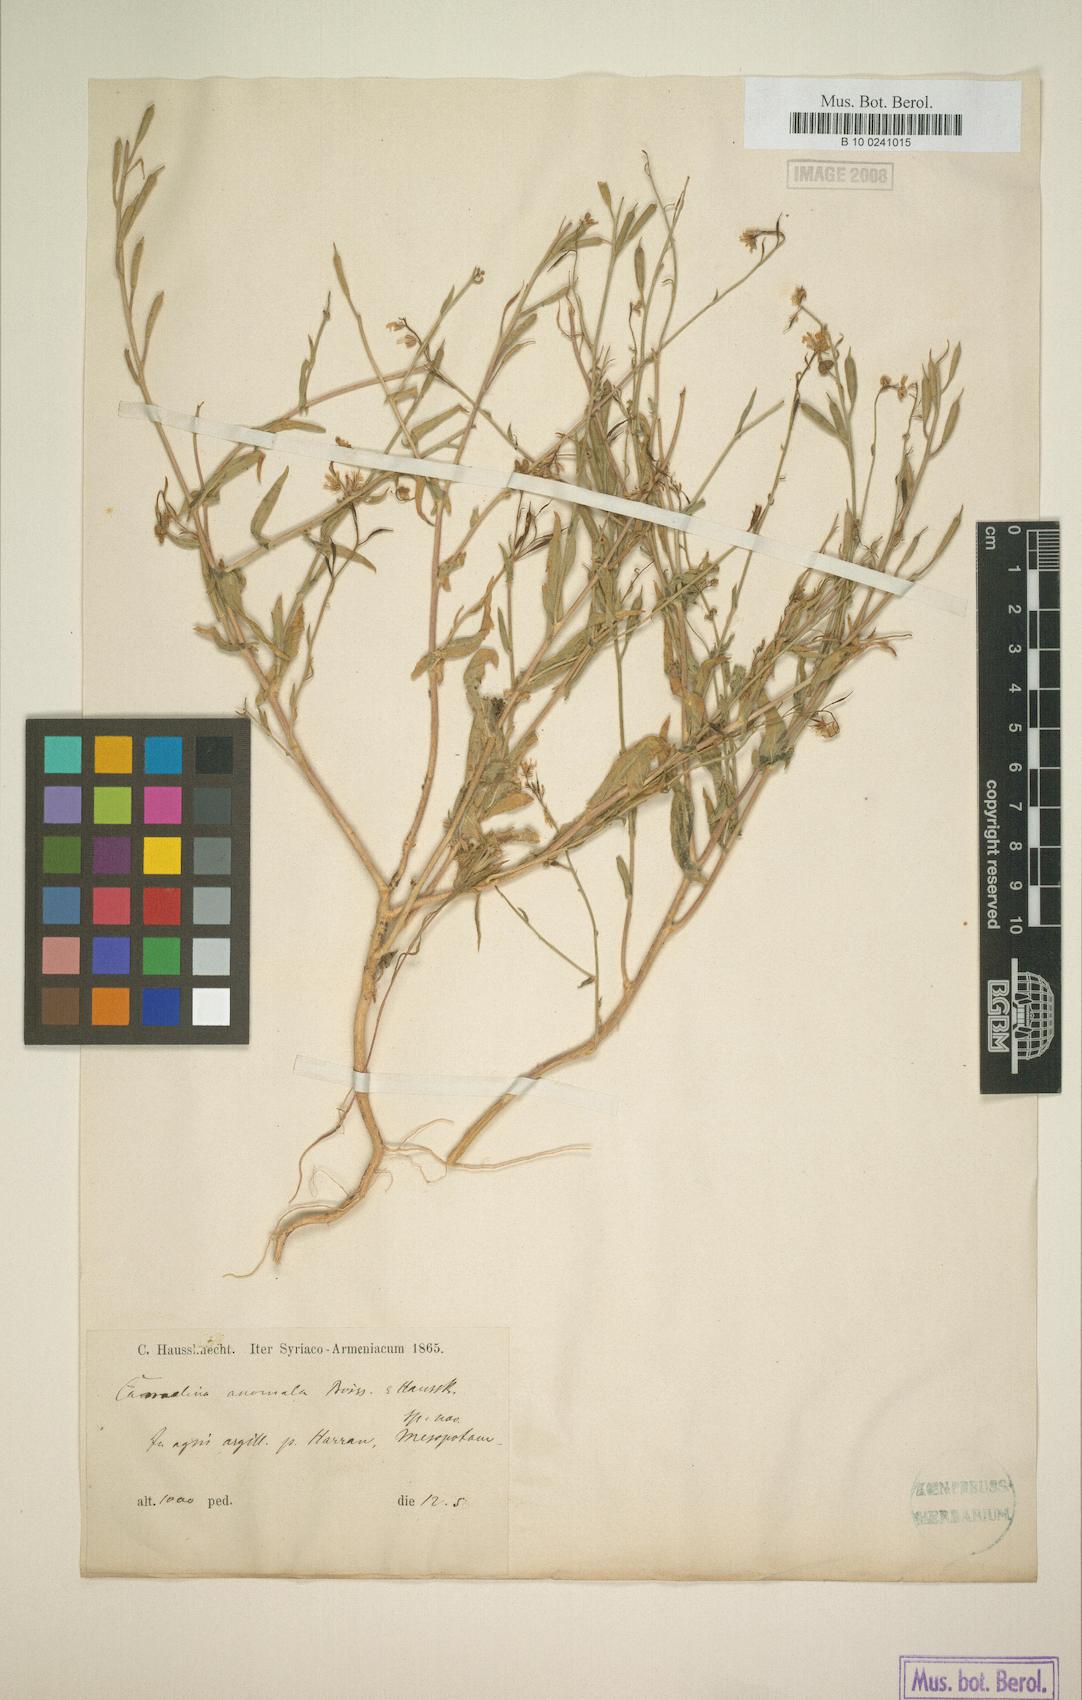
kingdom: Plantae
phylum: Tracheophyta
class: Magnoliopsida
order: Brassicales
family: Brassicaceae
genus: Camelina
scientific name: Camelina anomala
